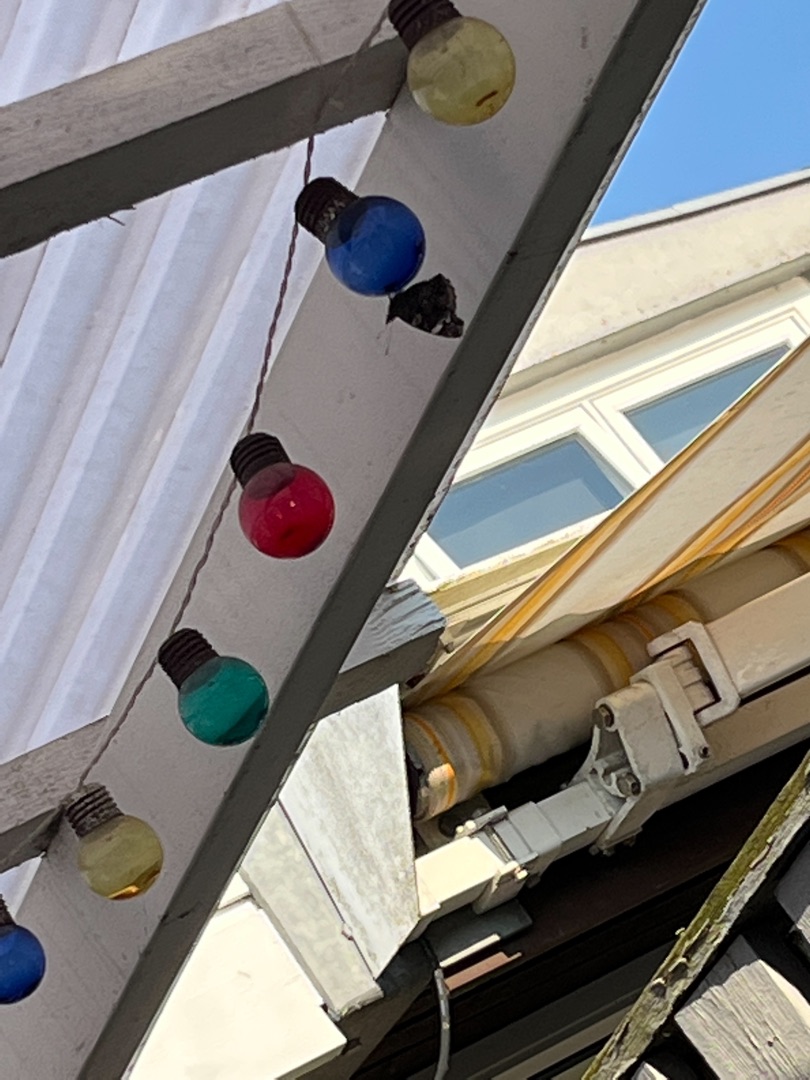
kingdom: Animalia
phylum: Arthropoda
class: Insecta
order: Lepidoptera
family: Nymphalidae
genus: Vanessa
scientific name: Vanessa atalanta
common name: Admiral
